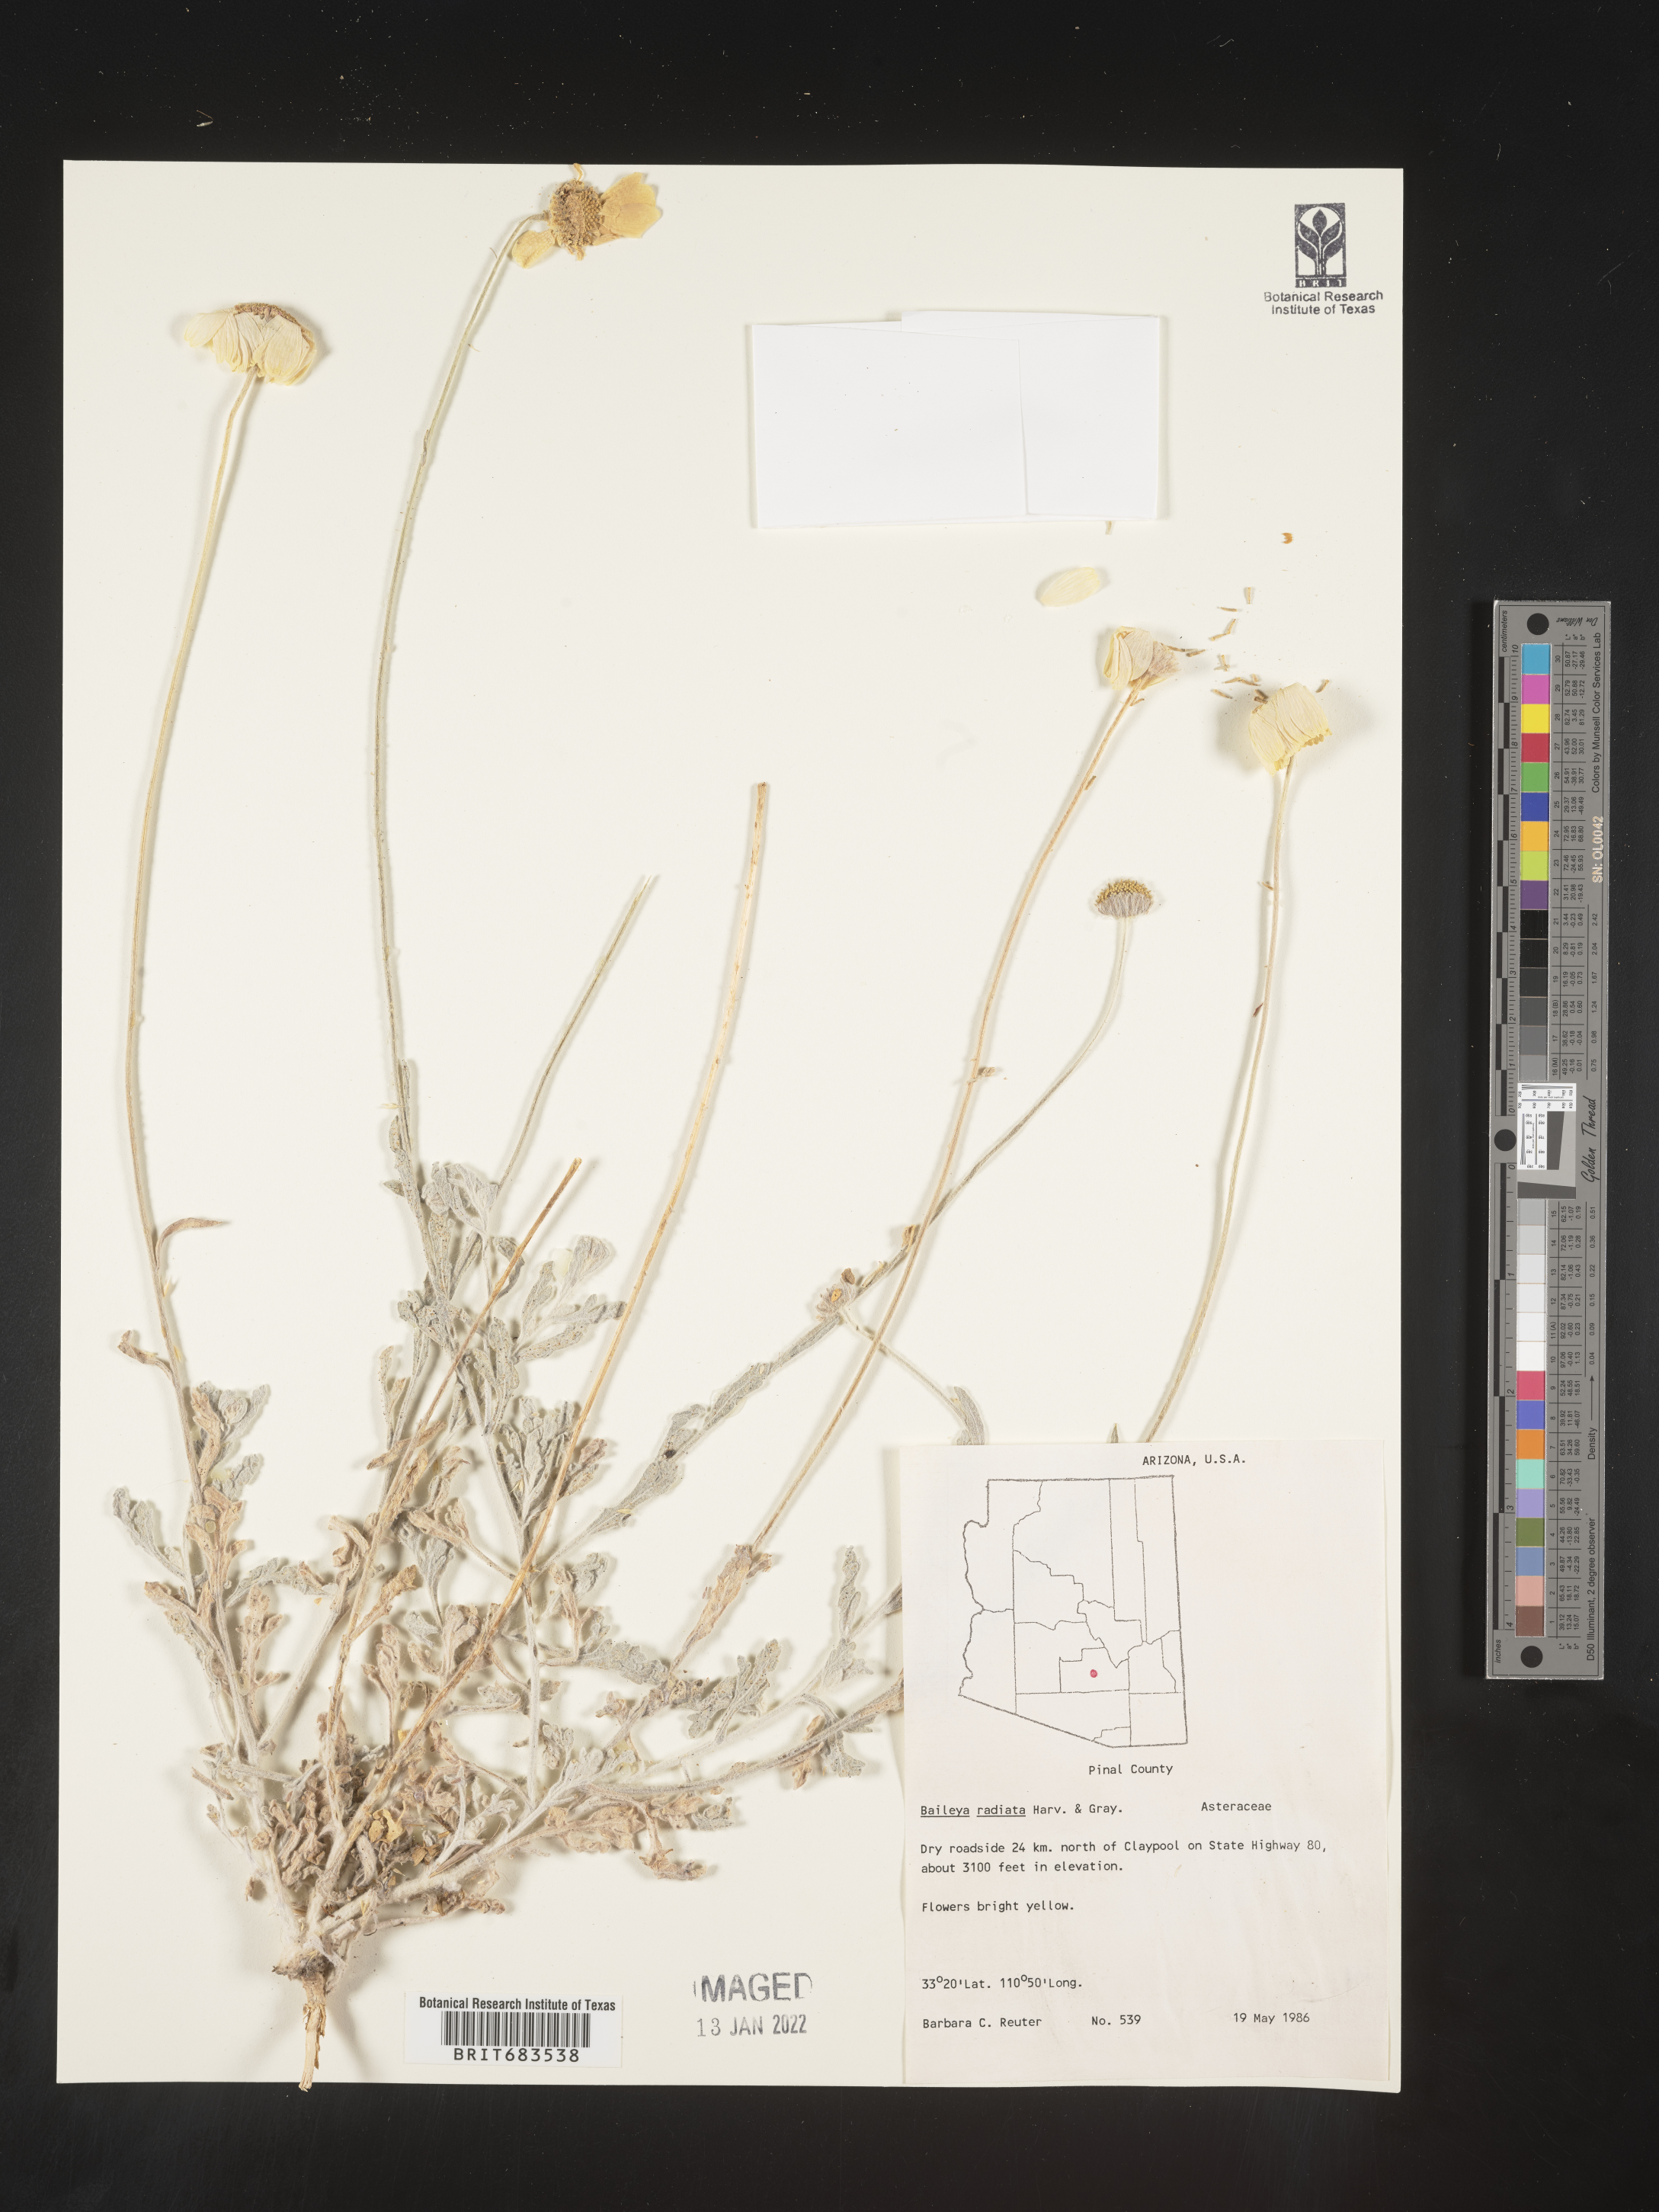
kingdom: Plantae
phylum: Tracheophyta
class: Magnoliopsida
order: Asterales
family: Asteraceae
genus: Baileya
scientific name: Baileya multiradiata
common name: Desert-marigold
